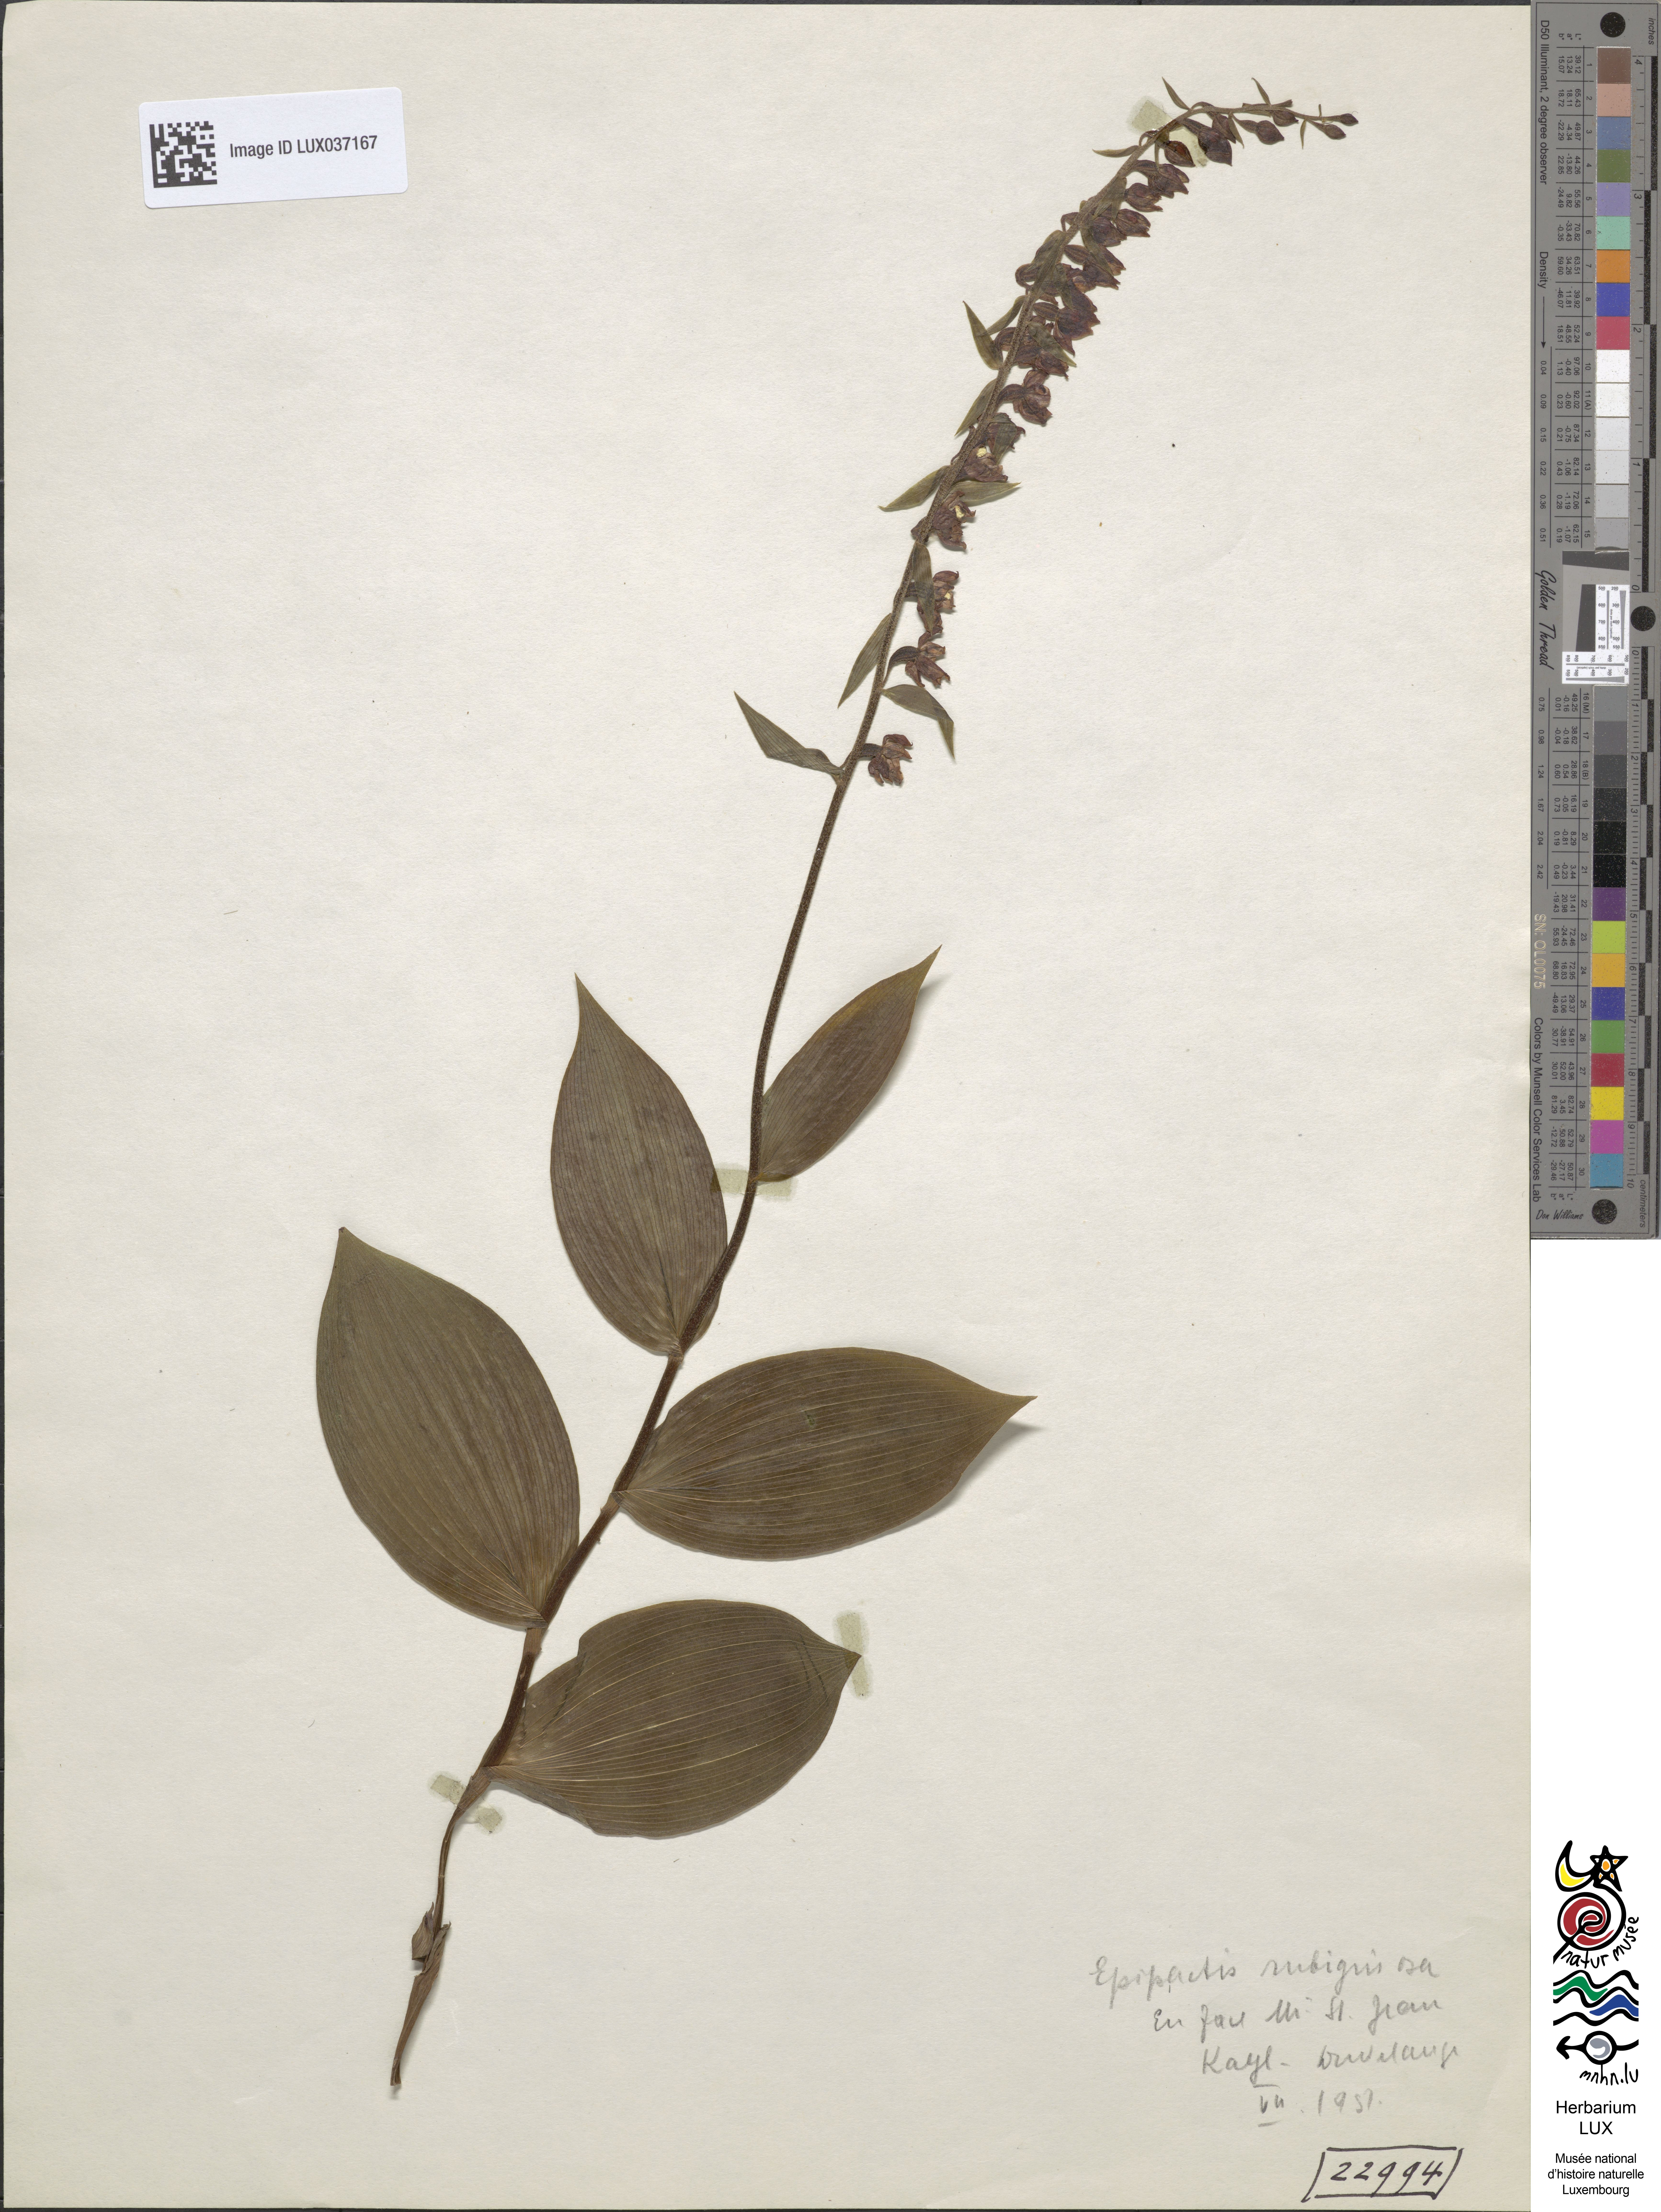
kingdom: Plantae
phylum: Tracheophyta
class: Liliopsida
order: Asparagales
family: Orchidaceae
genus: Epipactis
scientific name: Epipactis atrorubens
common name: Dark-red helleborine
